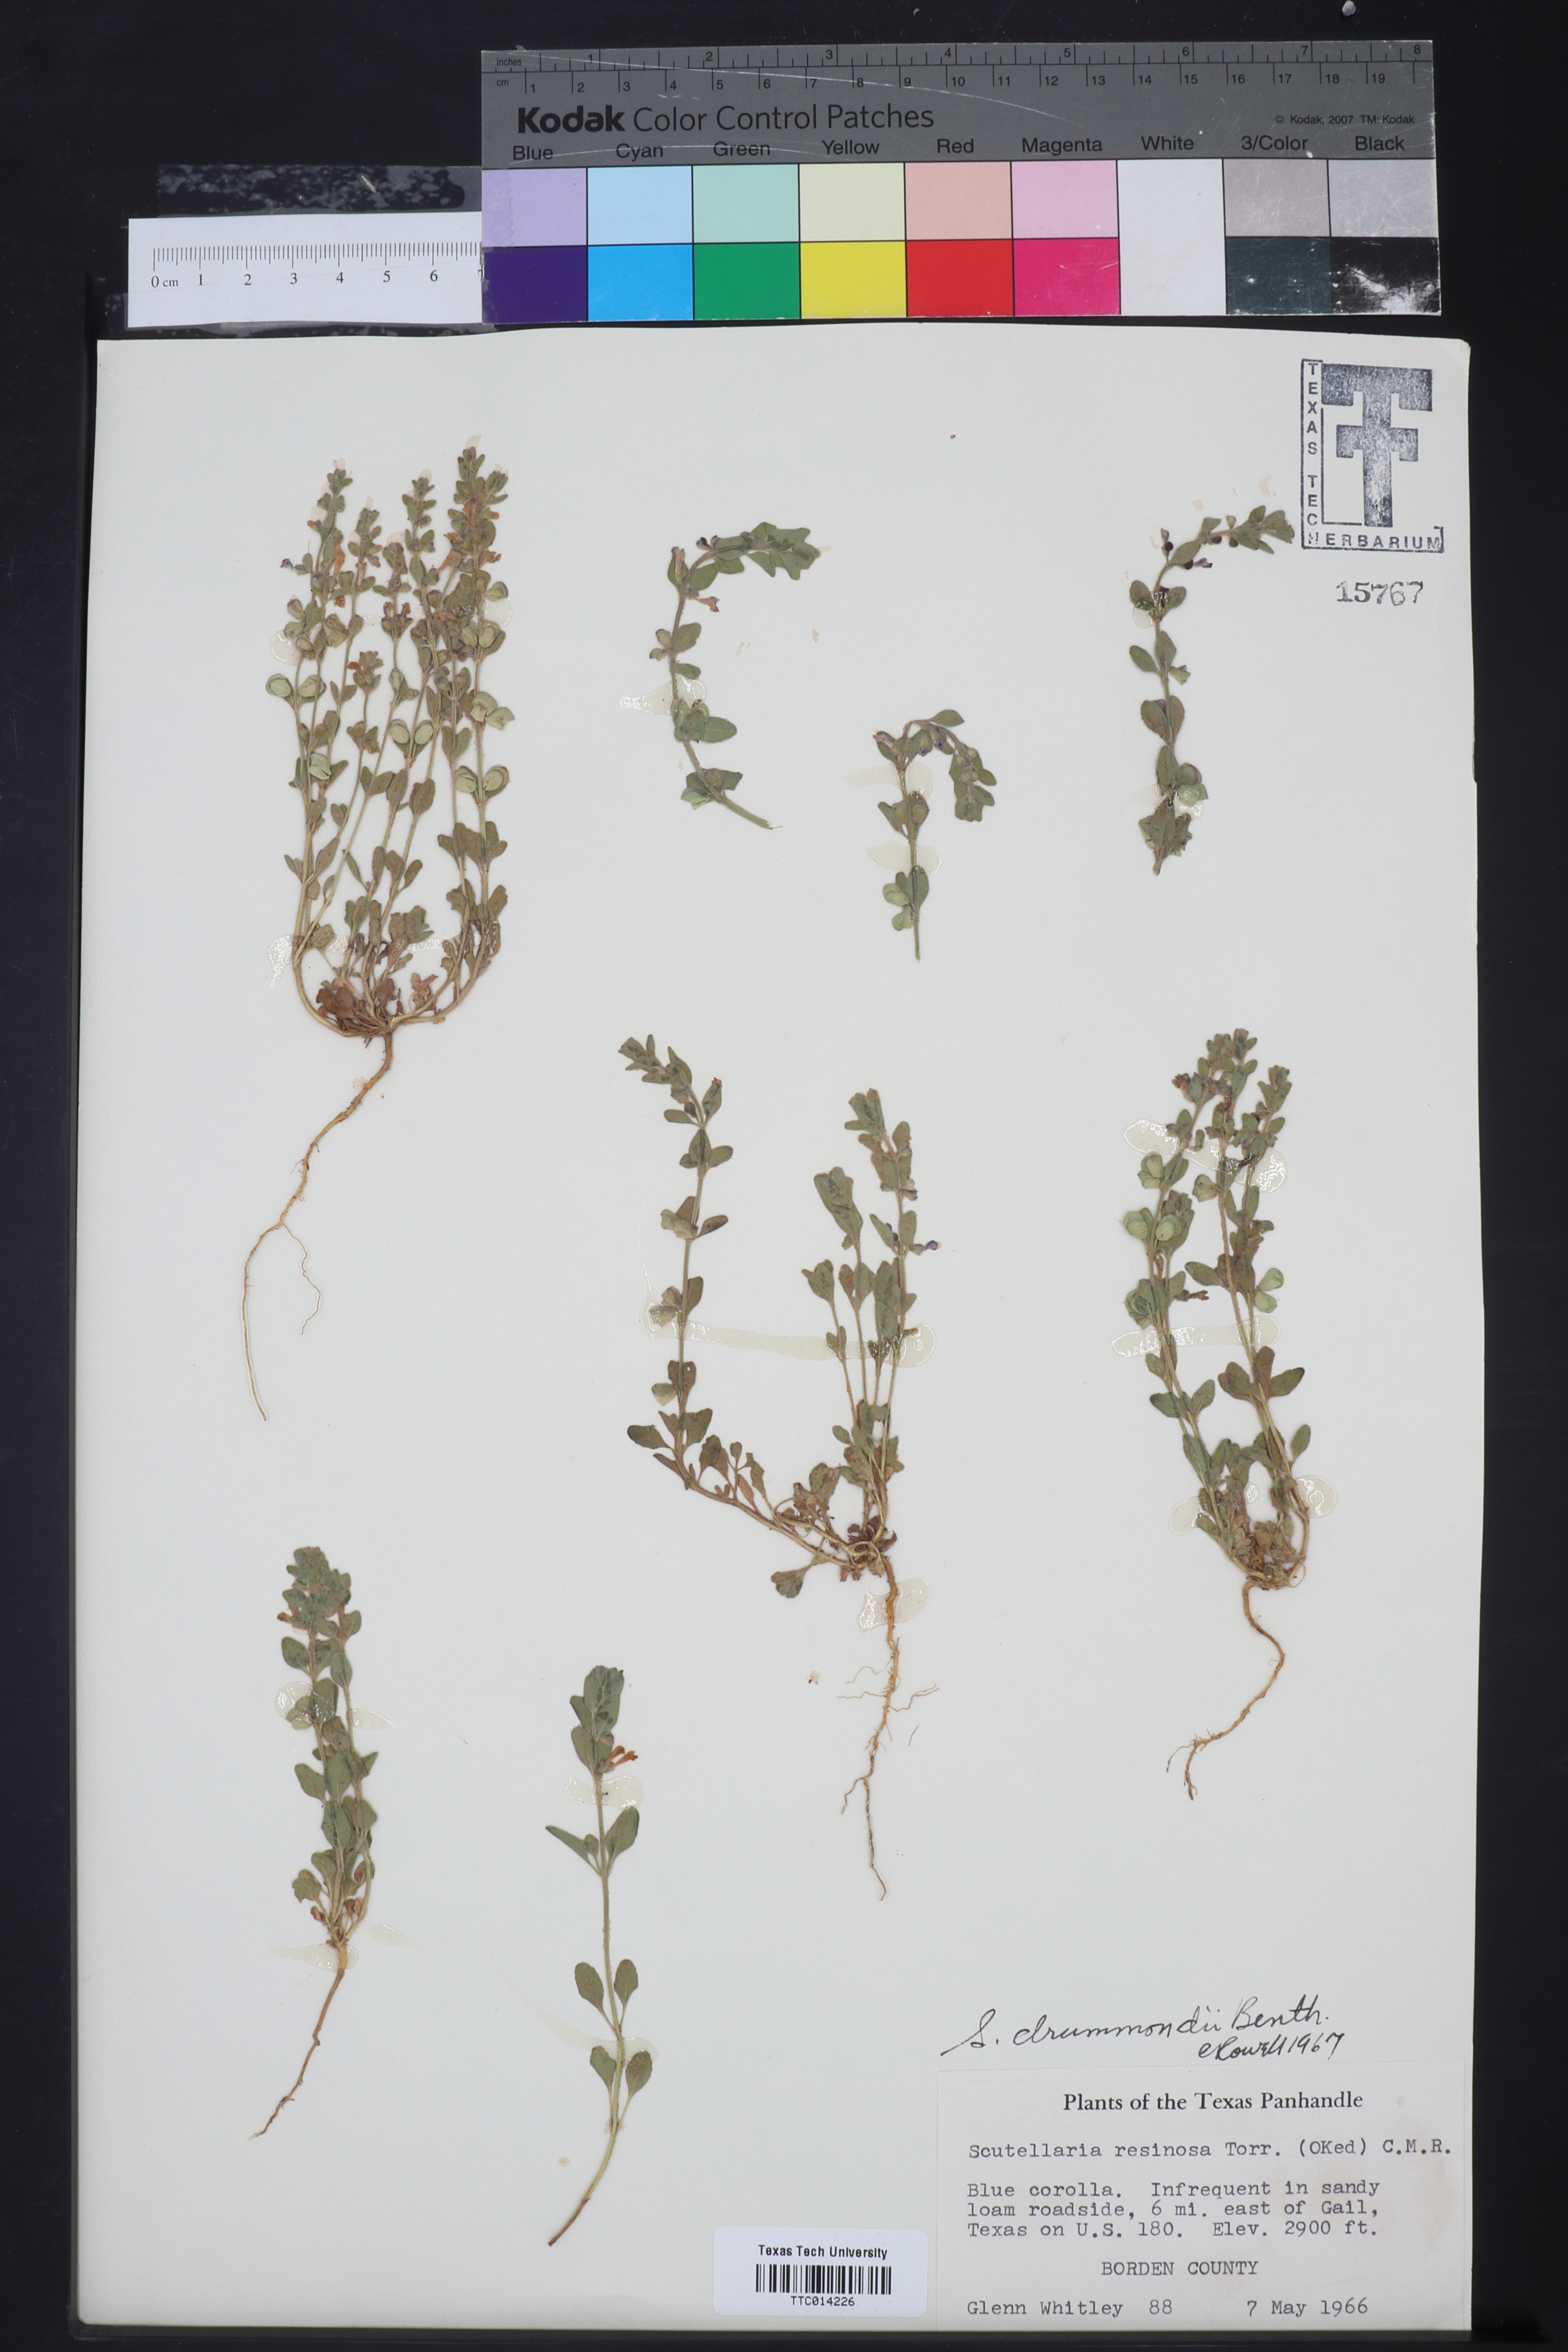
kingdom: Plantae
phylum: Tracheophyta
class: Magnoliopsida
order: Lamiales
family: Lamiaceae
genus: Scutellaria
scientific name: Scutellaria drummondii
